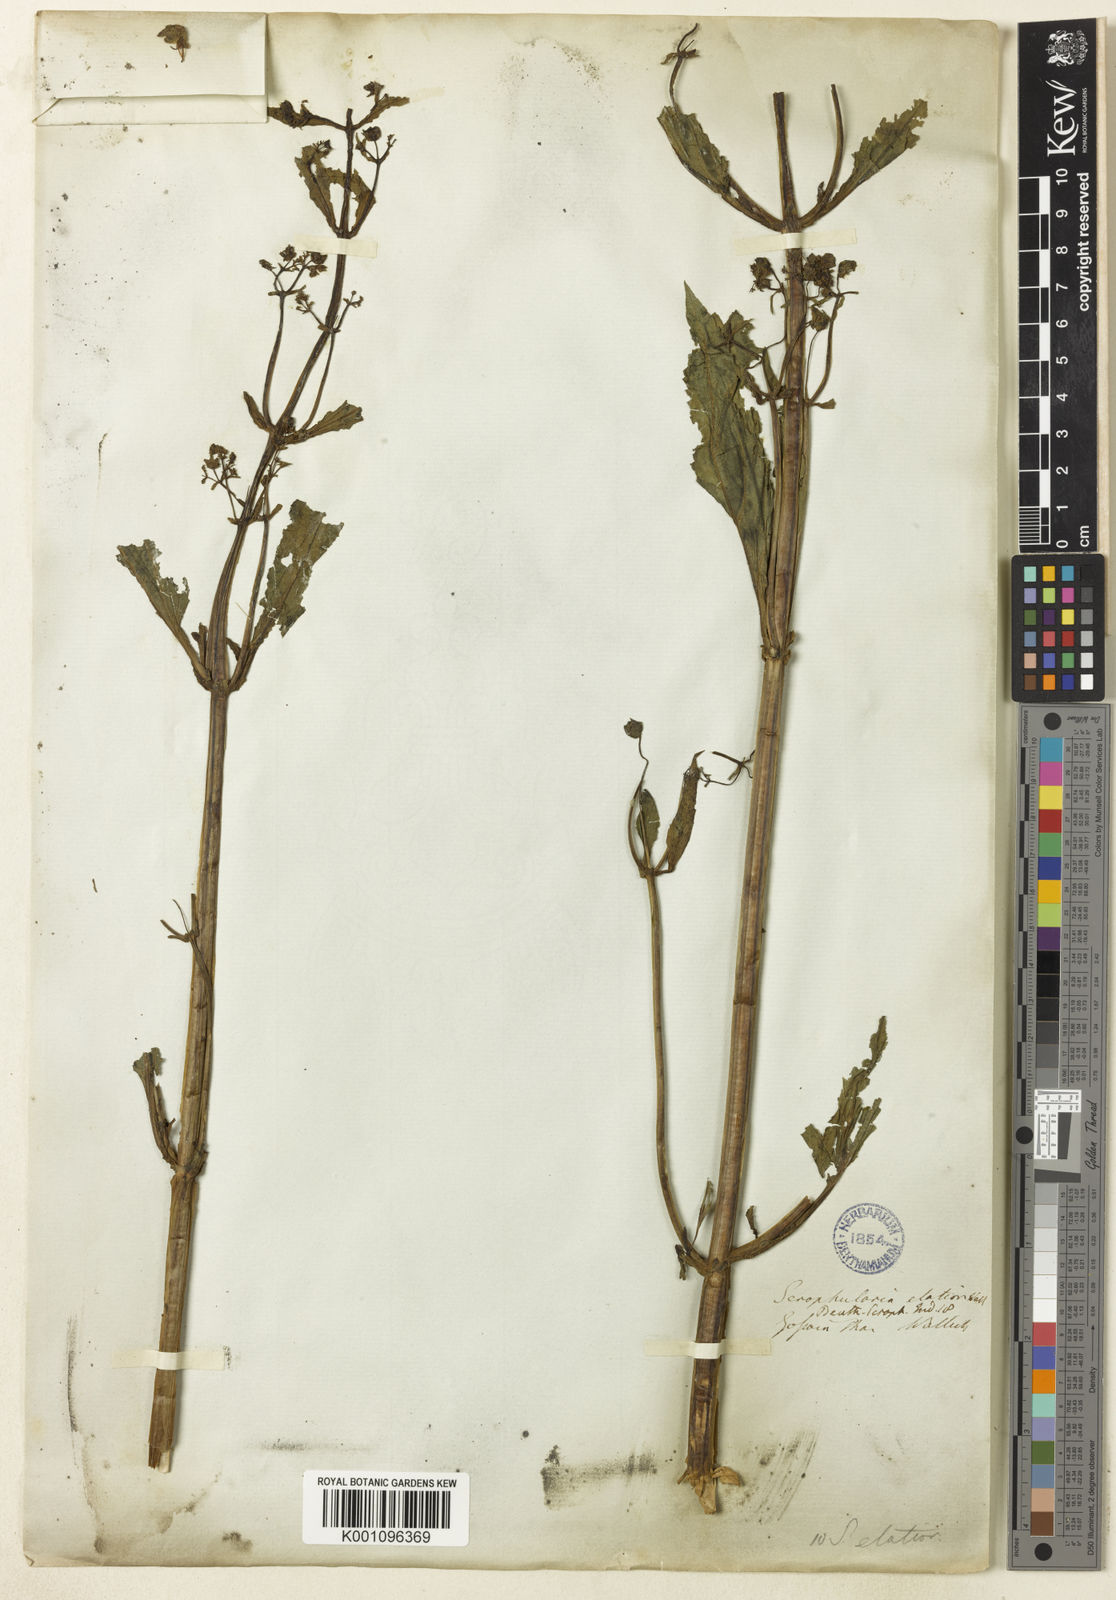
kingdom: Plantae
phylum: Tracheophyta
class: Magnoliopsida
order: Lamiales
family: Scrophulariaceae
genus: Scrophularia
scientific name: Scrophularia elatior
